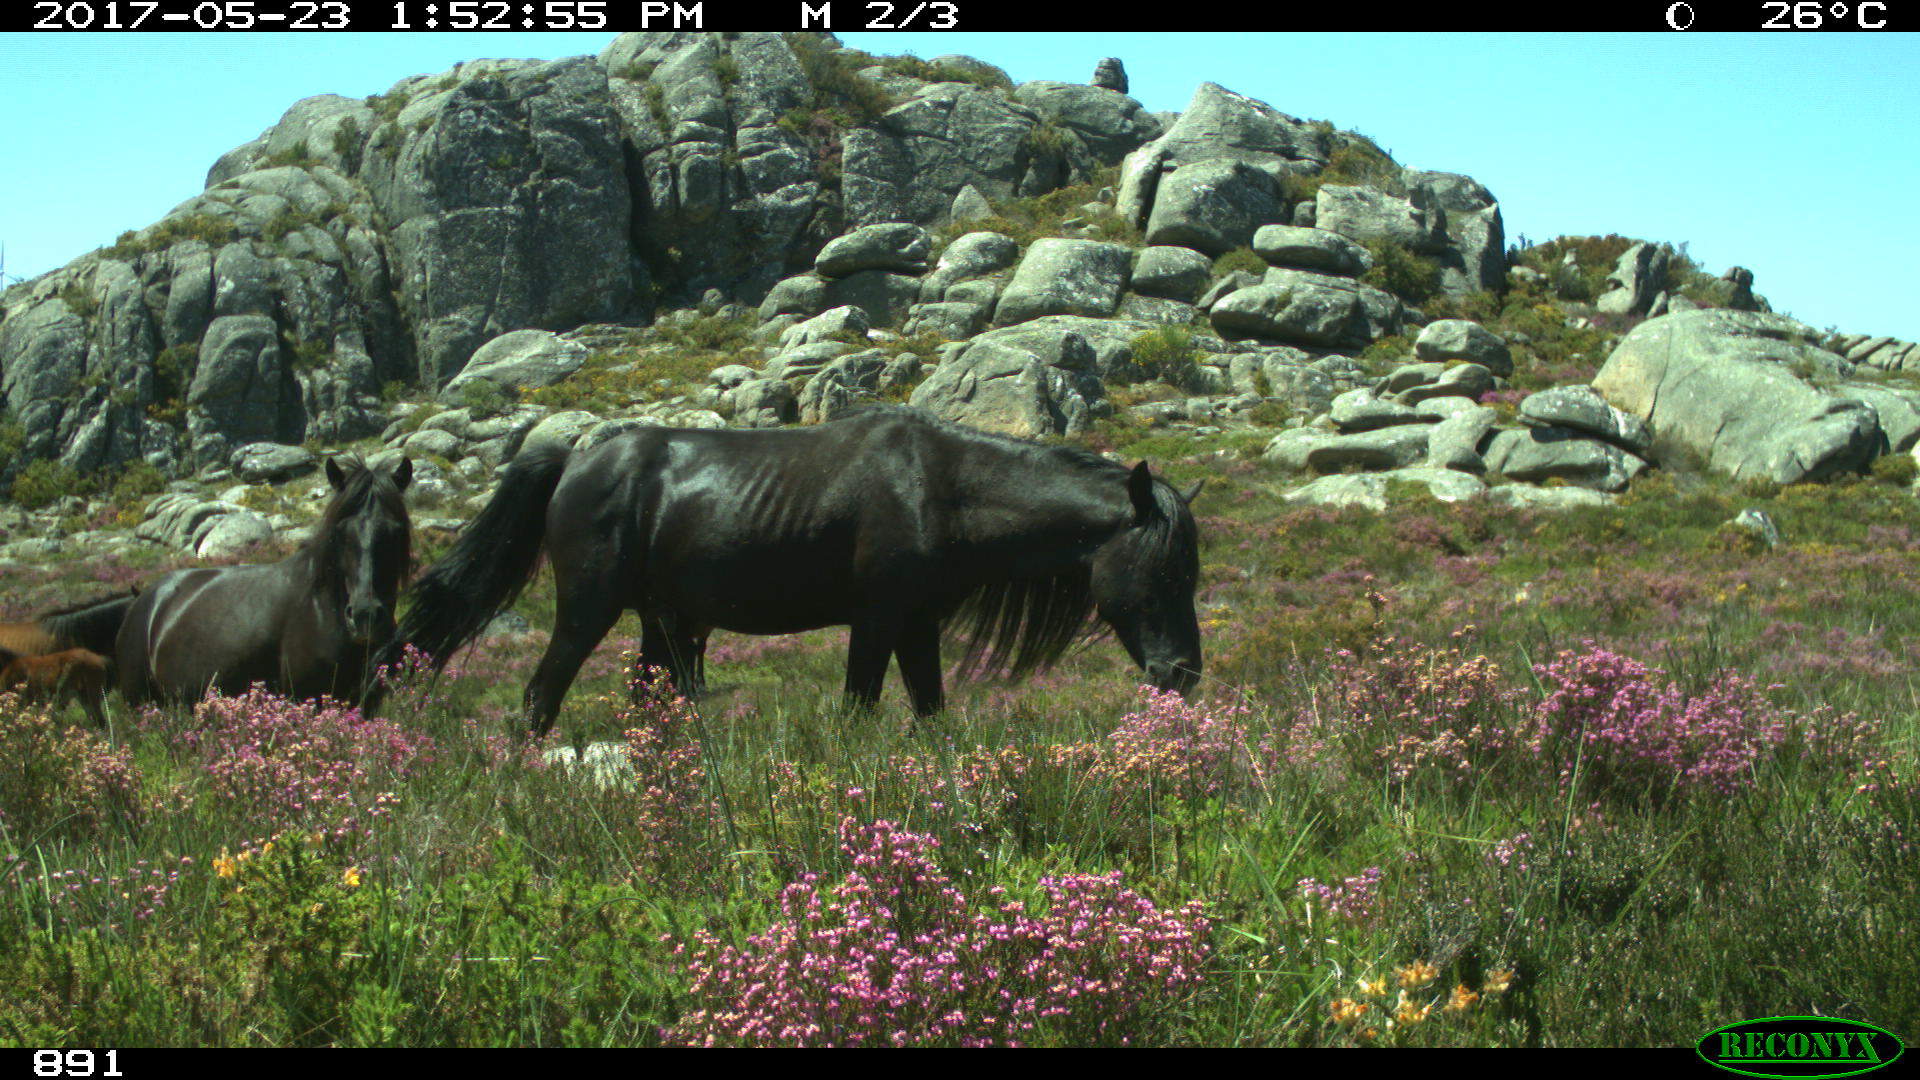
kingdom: Animalia
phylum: Chordata
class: Mammalia
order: Perissodactyla
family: Equidae
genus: Equus
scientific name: Equus caballus
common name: Horse
